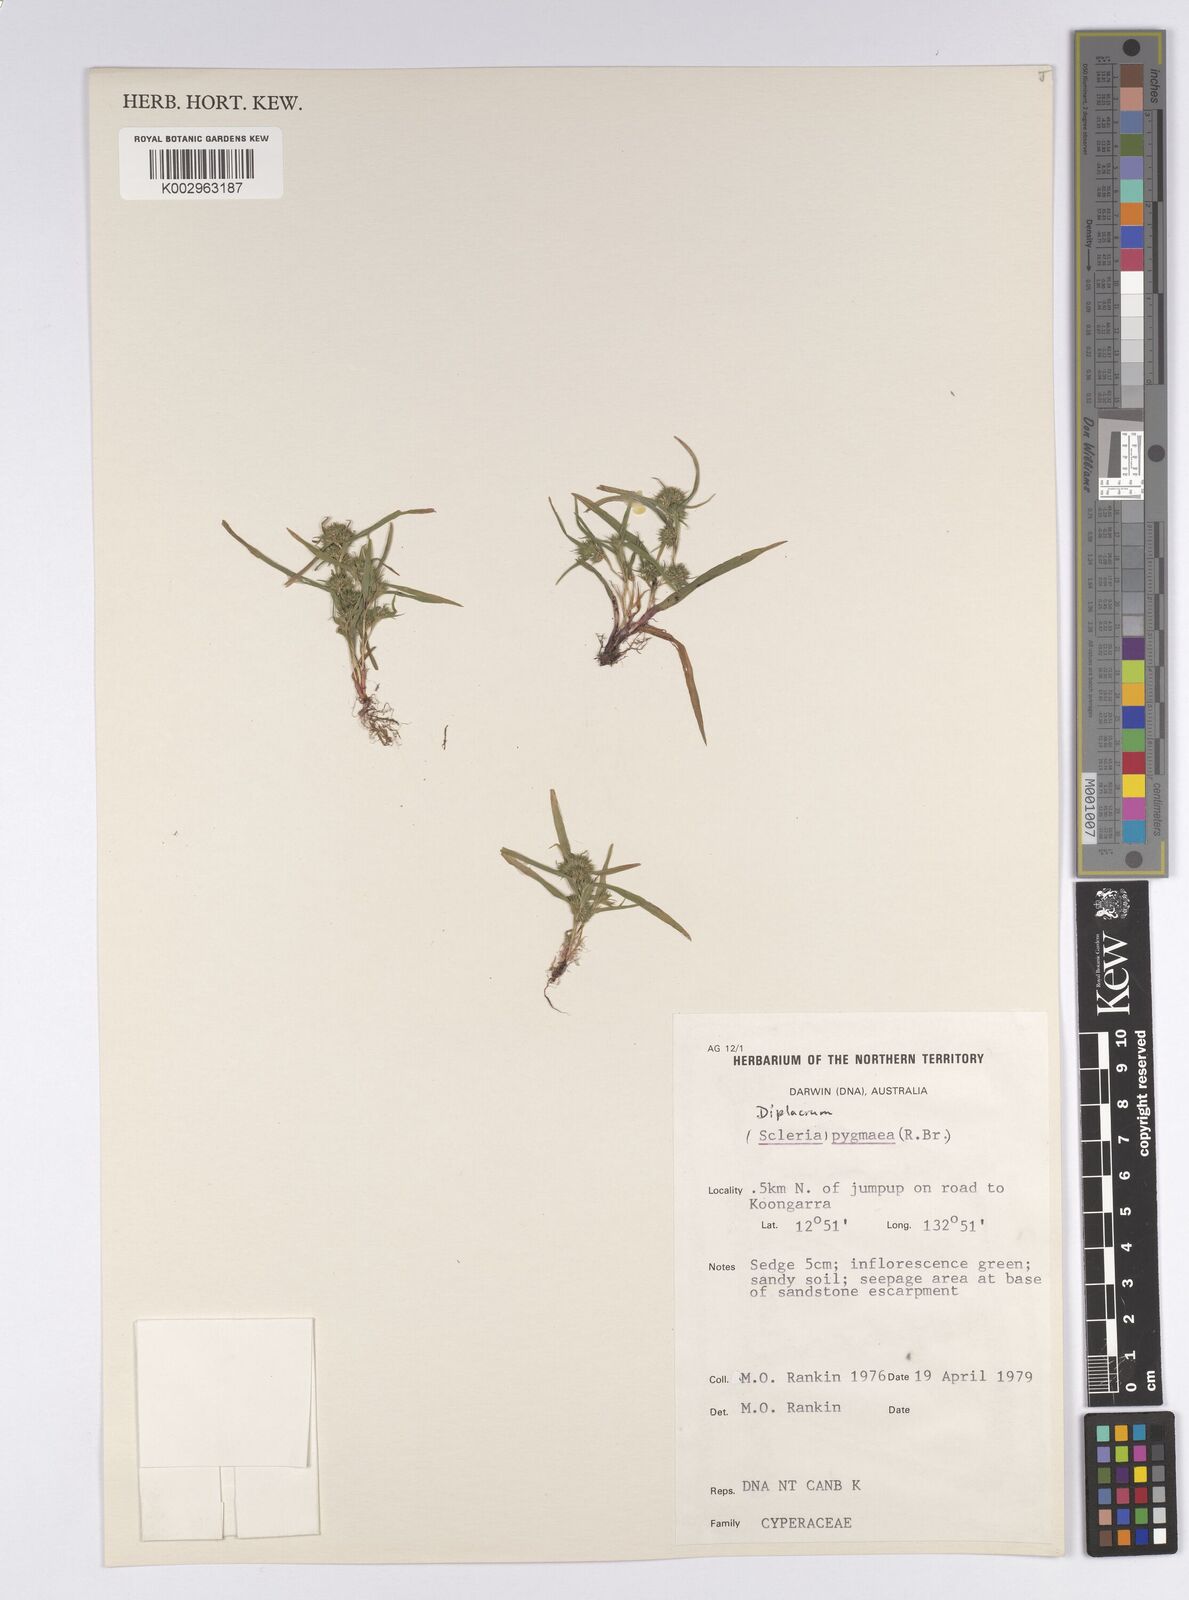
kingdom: Plantae
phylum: Tracheophyta
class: Liliopsida
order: Poales
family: Cyperaceae
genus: Diplacrum
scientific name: Diplacrum pygmaeum
